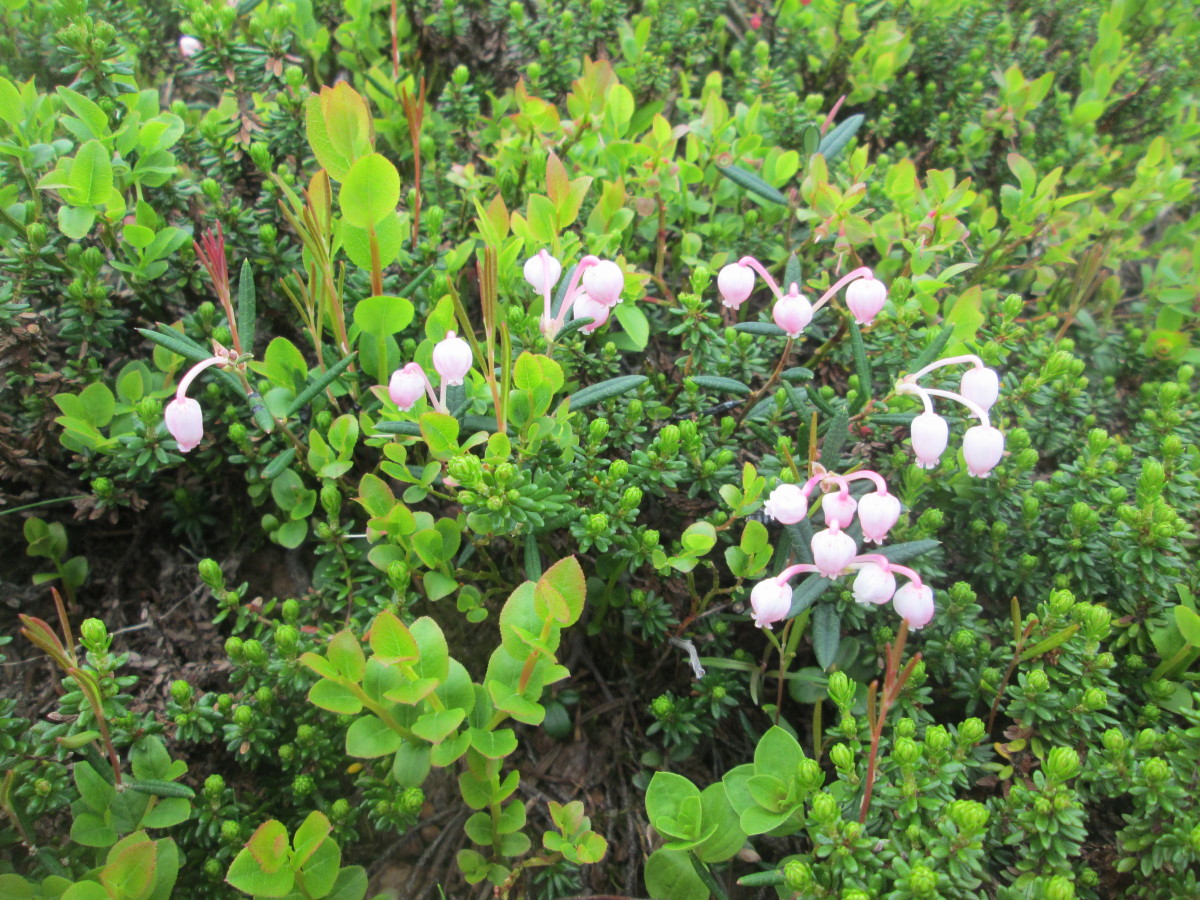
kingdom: Plantae
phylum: Tracheophyta
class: Magnoliopsida
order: Ericales
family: Ericaceae
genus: Andromeda
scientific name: Andromeda polifolia
